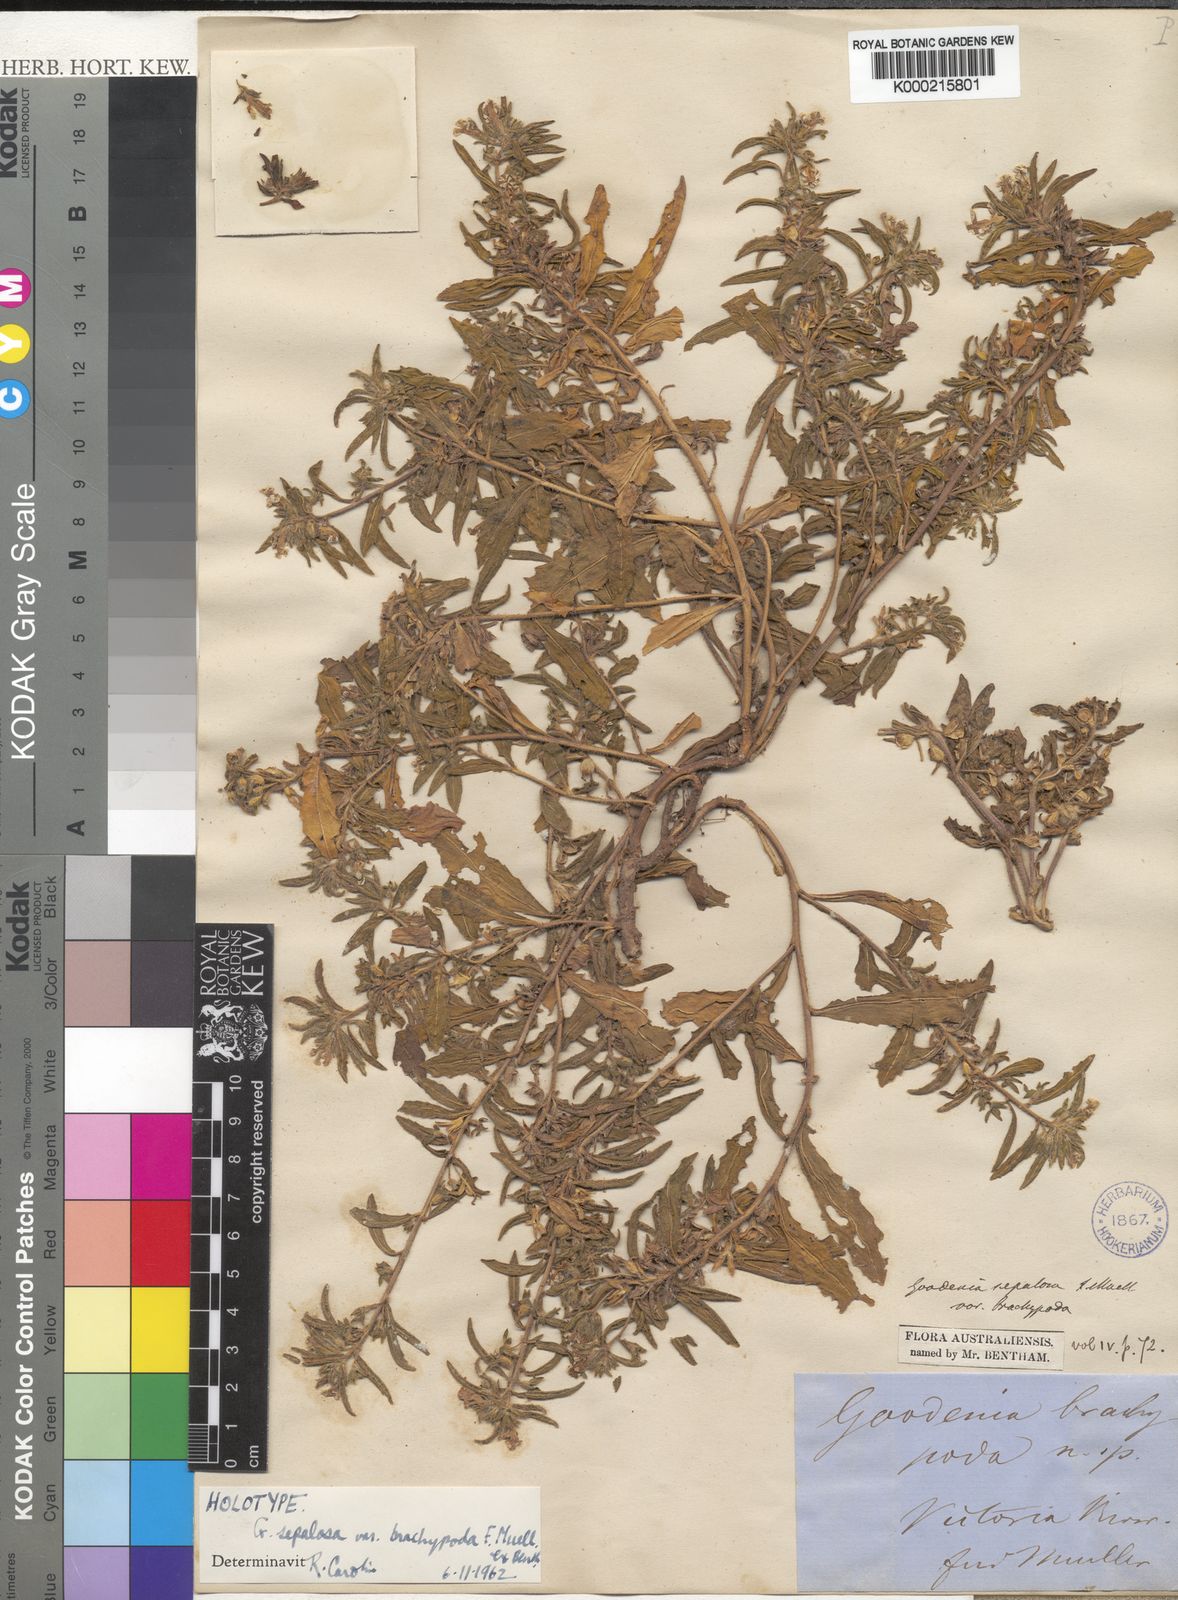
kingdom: Plantae
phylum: Tracheophyta
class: Magnoliopsida
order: Asterales
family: Goodeniaceae
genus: Goodenia
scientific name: Goodenia brachypoda
